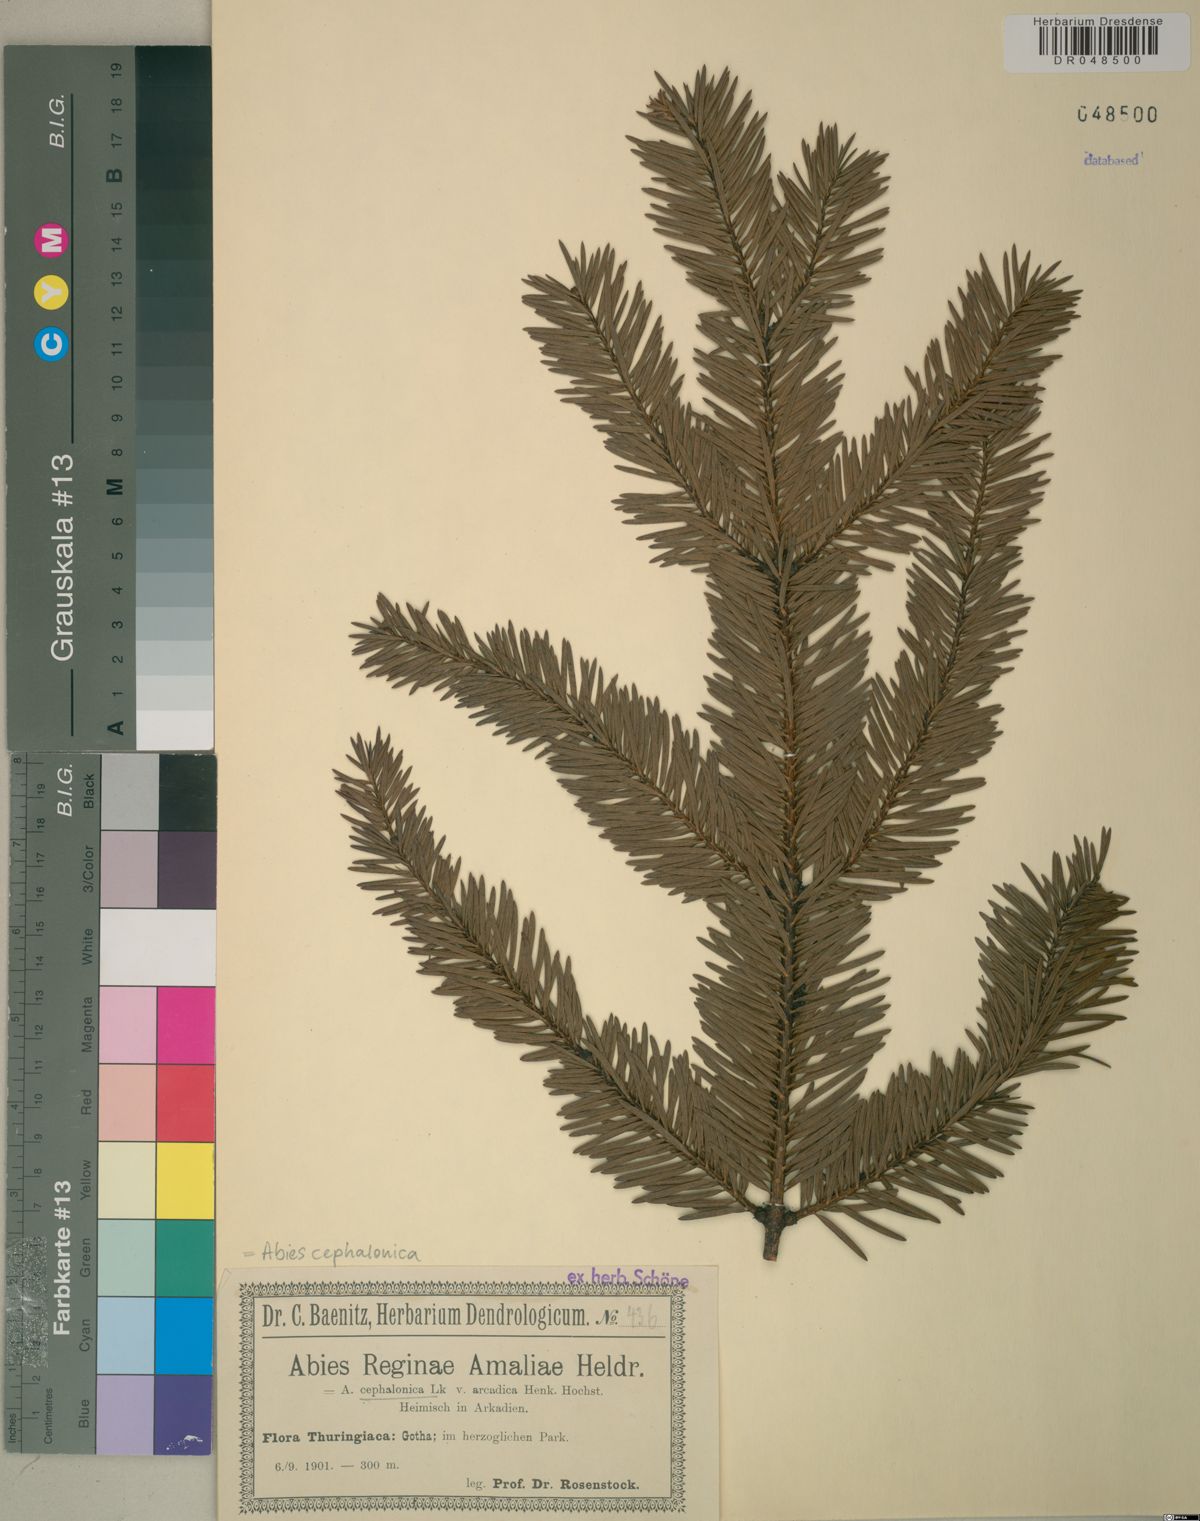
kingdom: Plantae
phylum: Tracheophyta
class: Pinopsida
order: Pinales
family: Pinaceae
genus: Abies
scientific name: Abies cephalonica
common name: Greek fir
